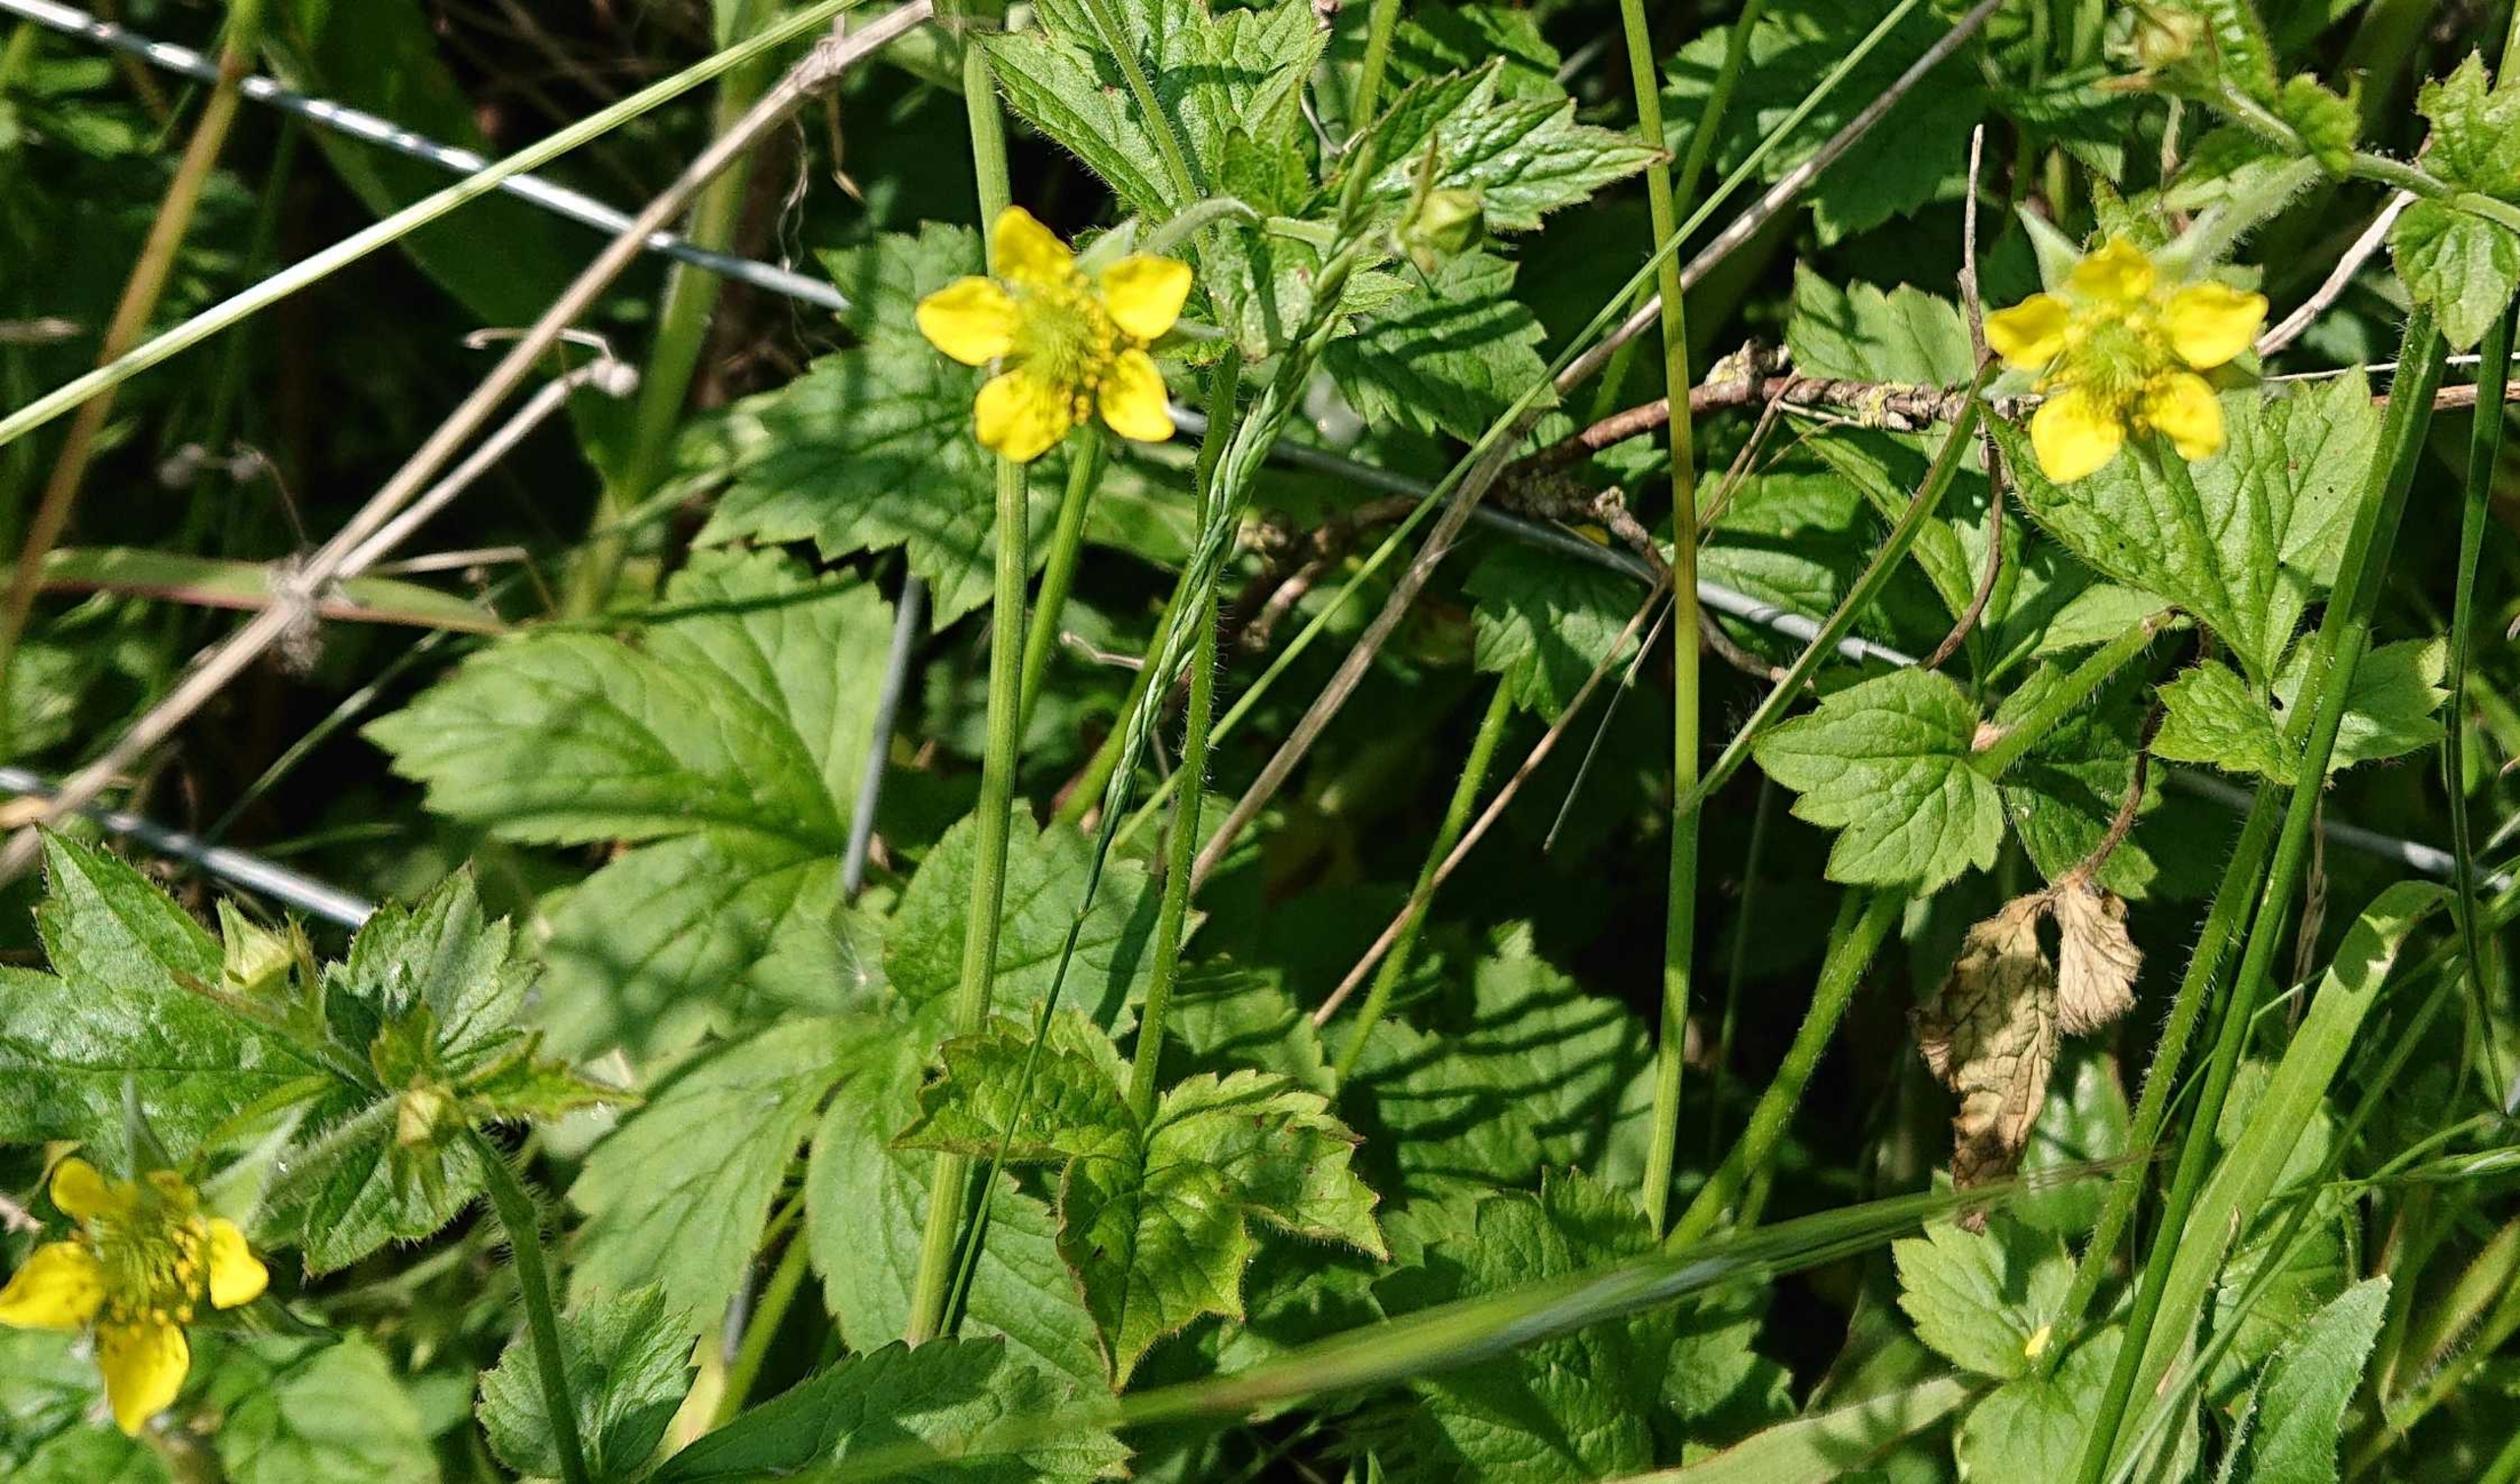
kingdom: Plantae
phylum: Tracheophyta
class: Magnoliopsida
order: Rosales
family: Rosaceae
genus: Geum
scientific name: Geum urbanum
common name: Feber-nellikerod
